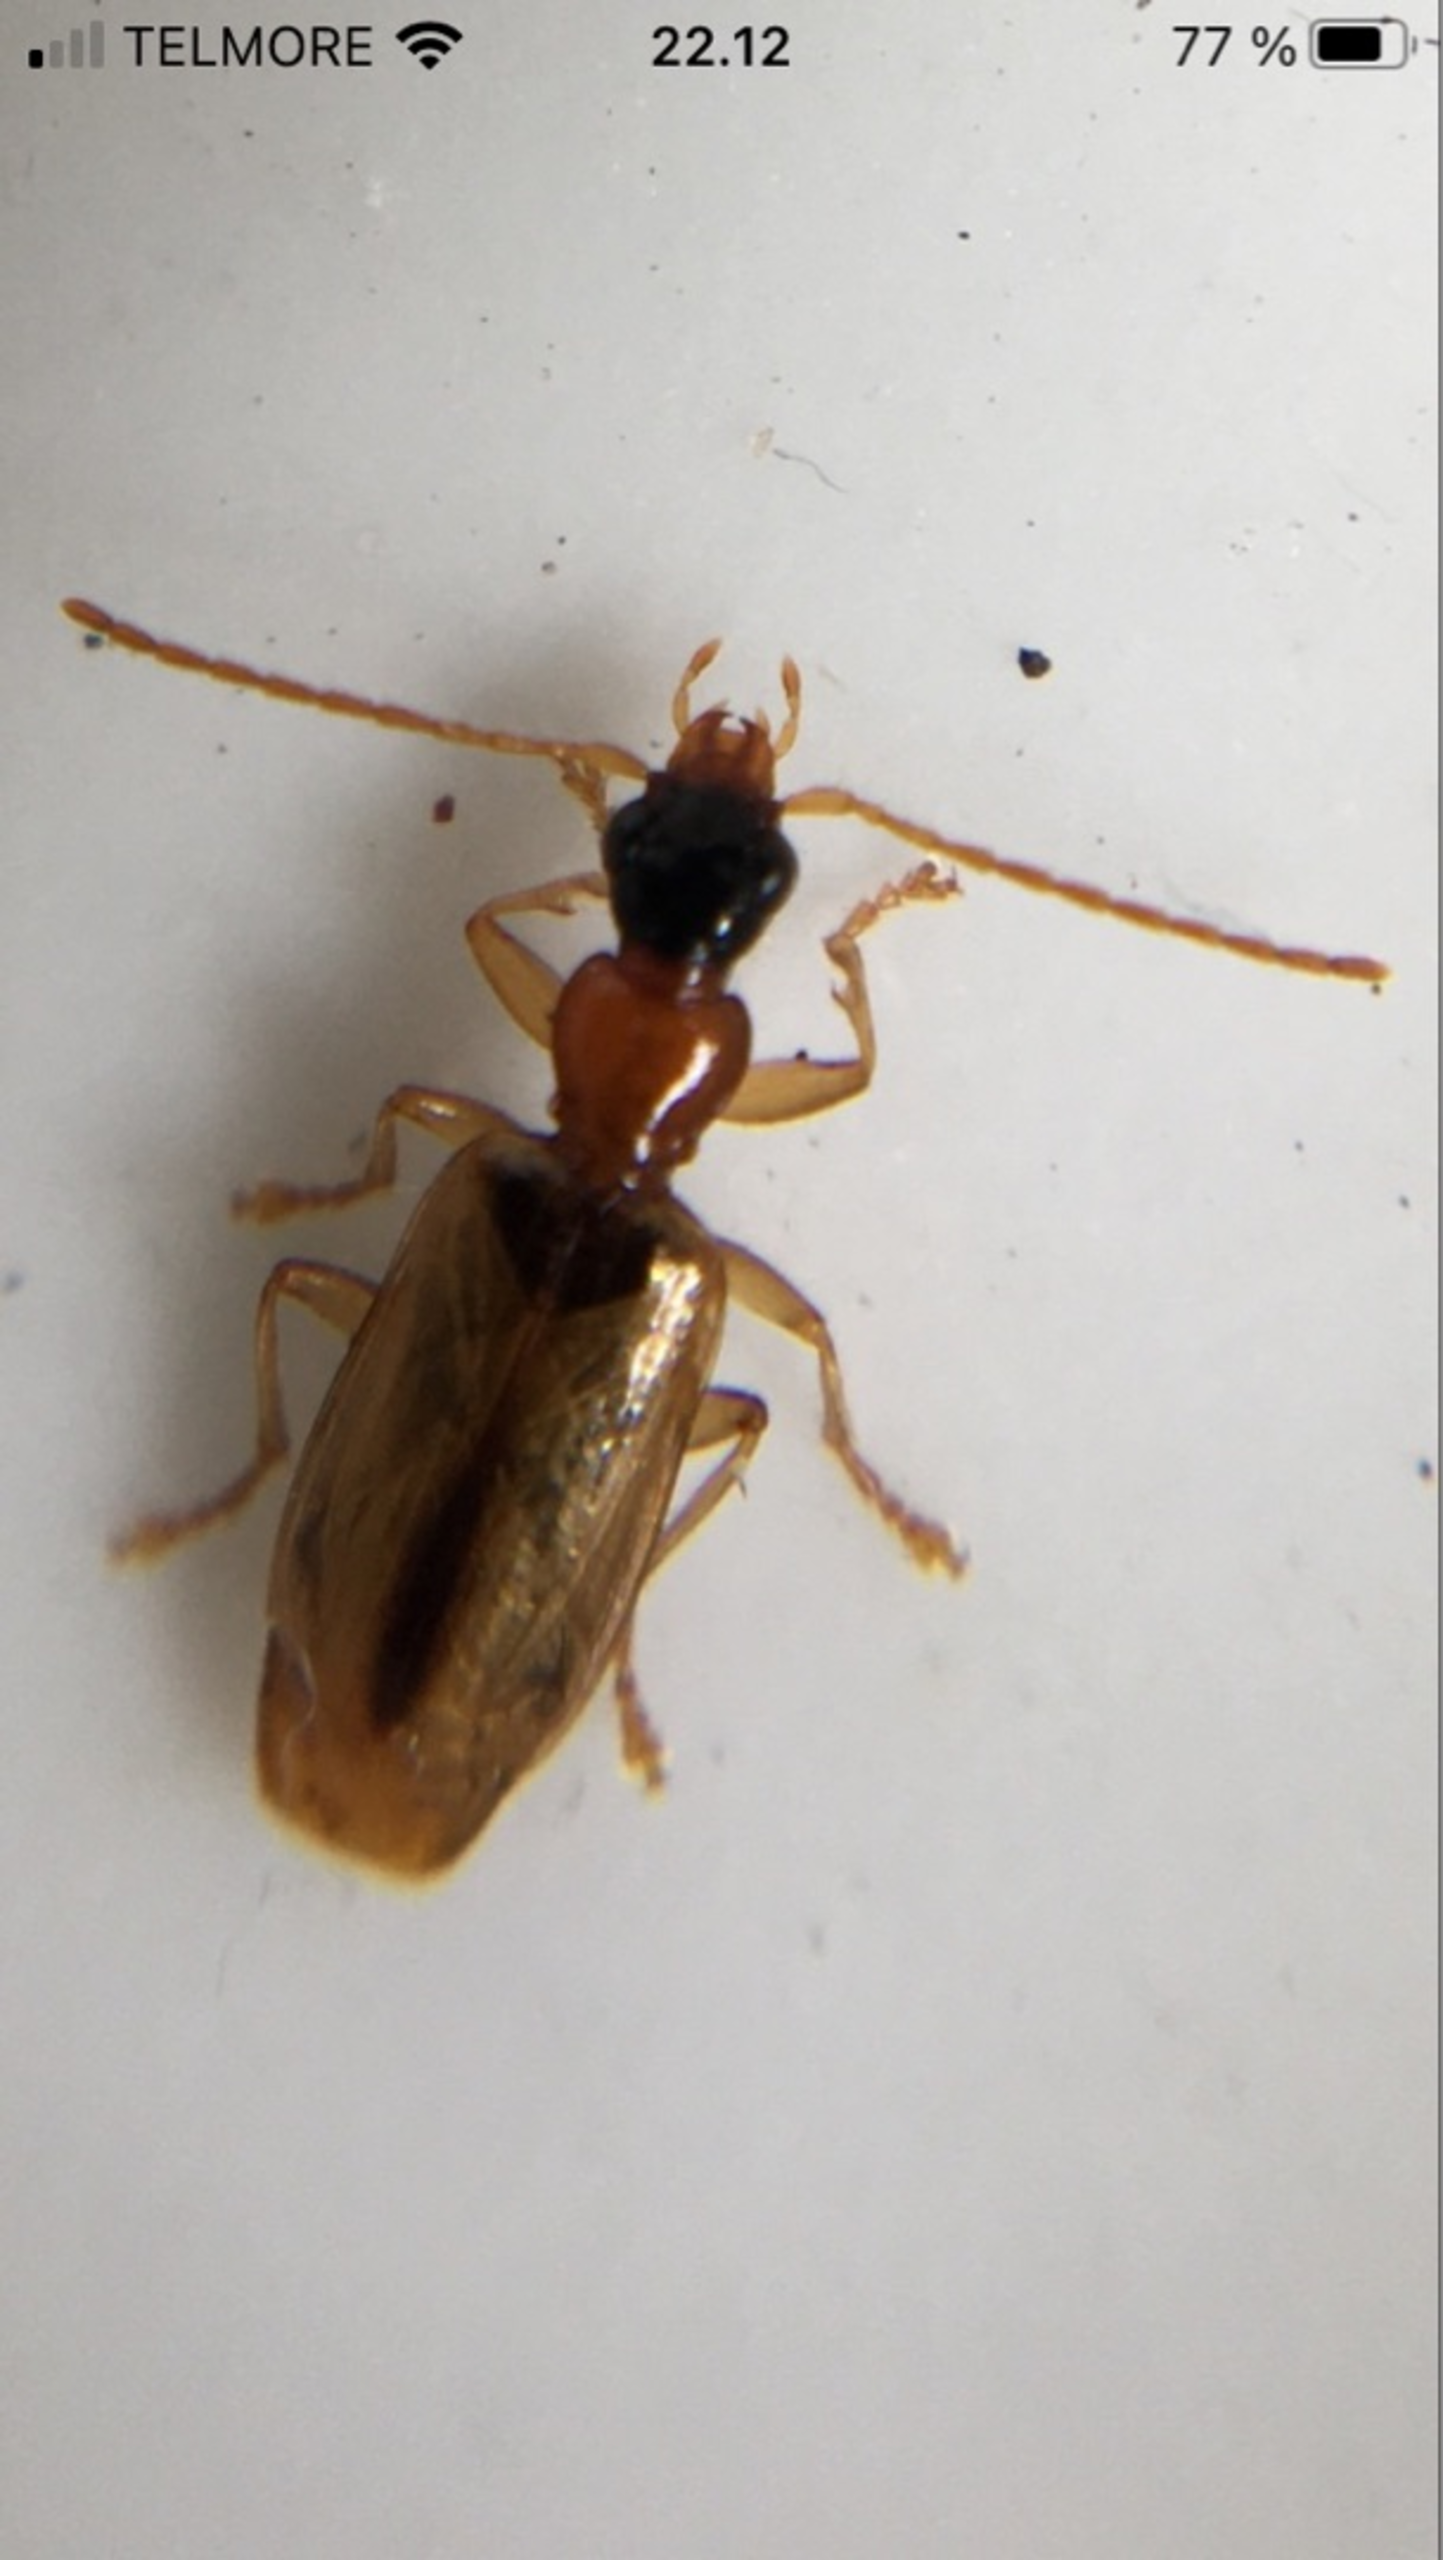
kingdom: Animalia
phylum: Arthropoda
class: Insecta
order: Coleoptera
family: Carabidae
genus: Demetrias
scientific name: Demetrias atricapillus
